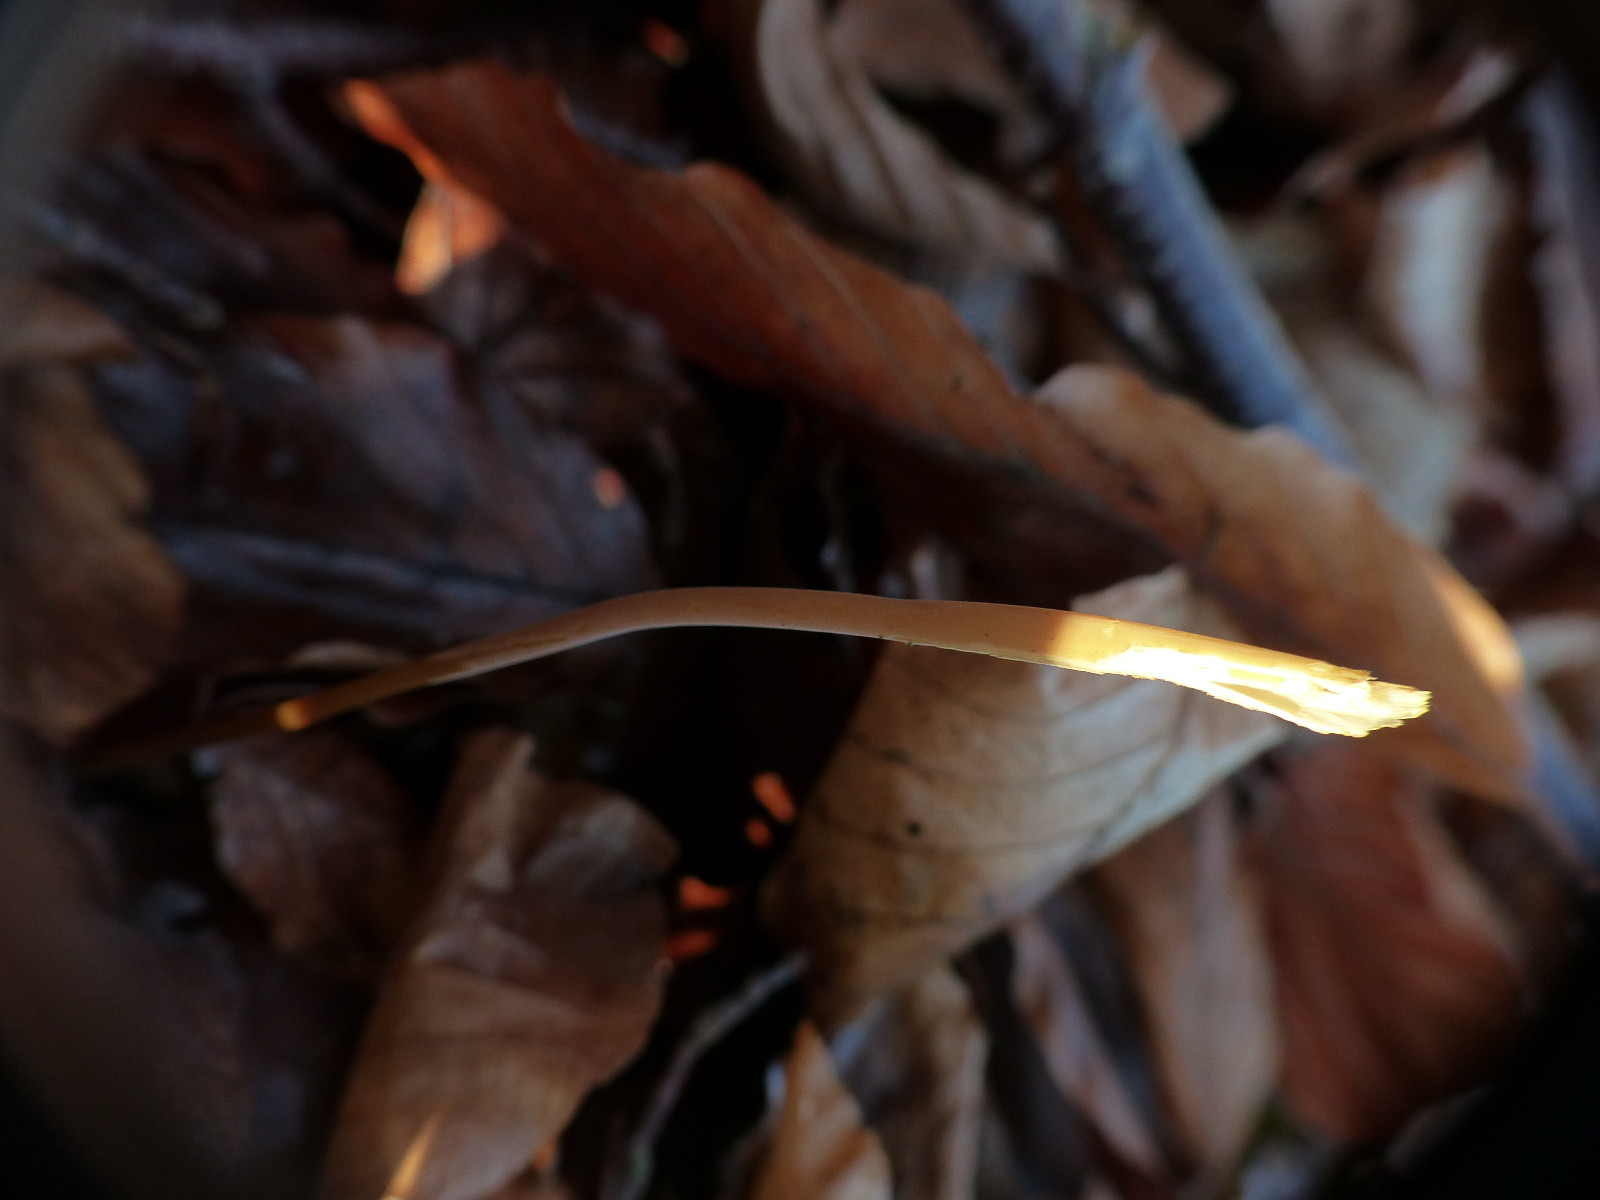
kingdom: Fungi
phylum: Basidiomycota
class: Agaricomycetes
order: Agaricales
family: Typhulaceae
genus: Typhula
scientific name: Typhula fistulosa
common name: pibet rørkølle
